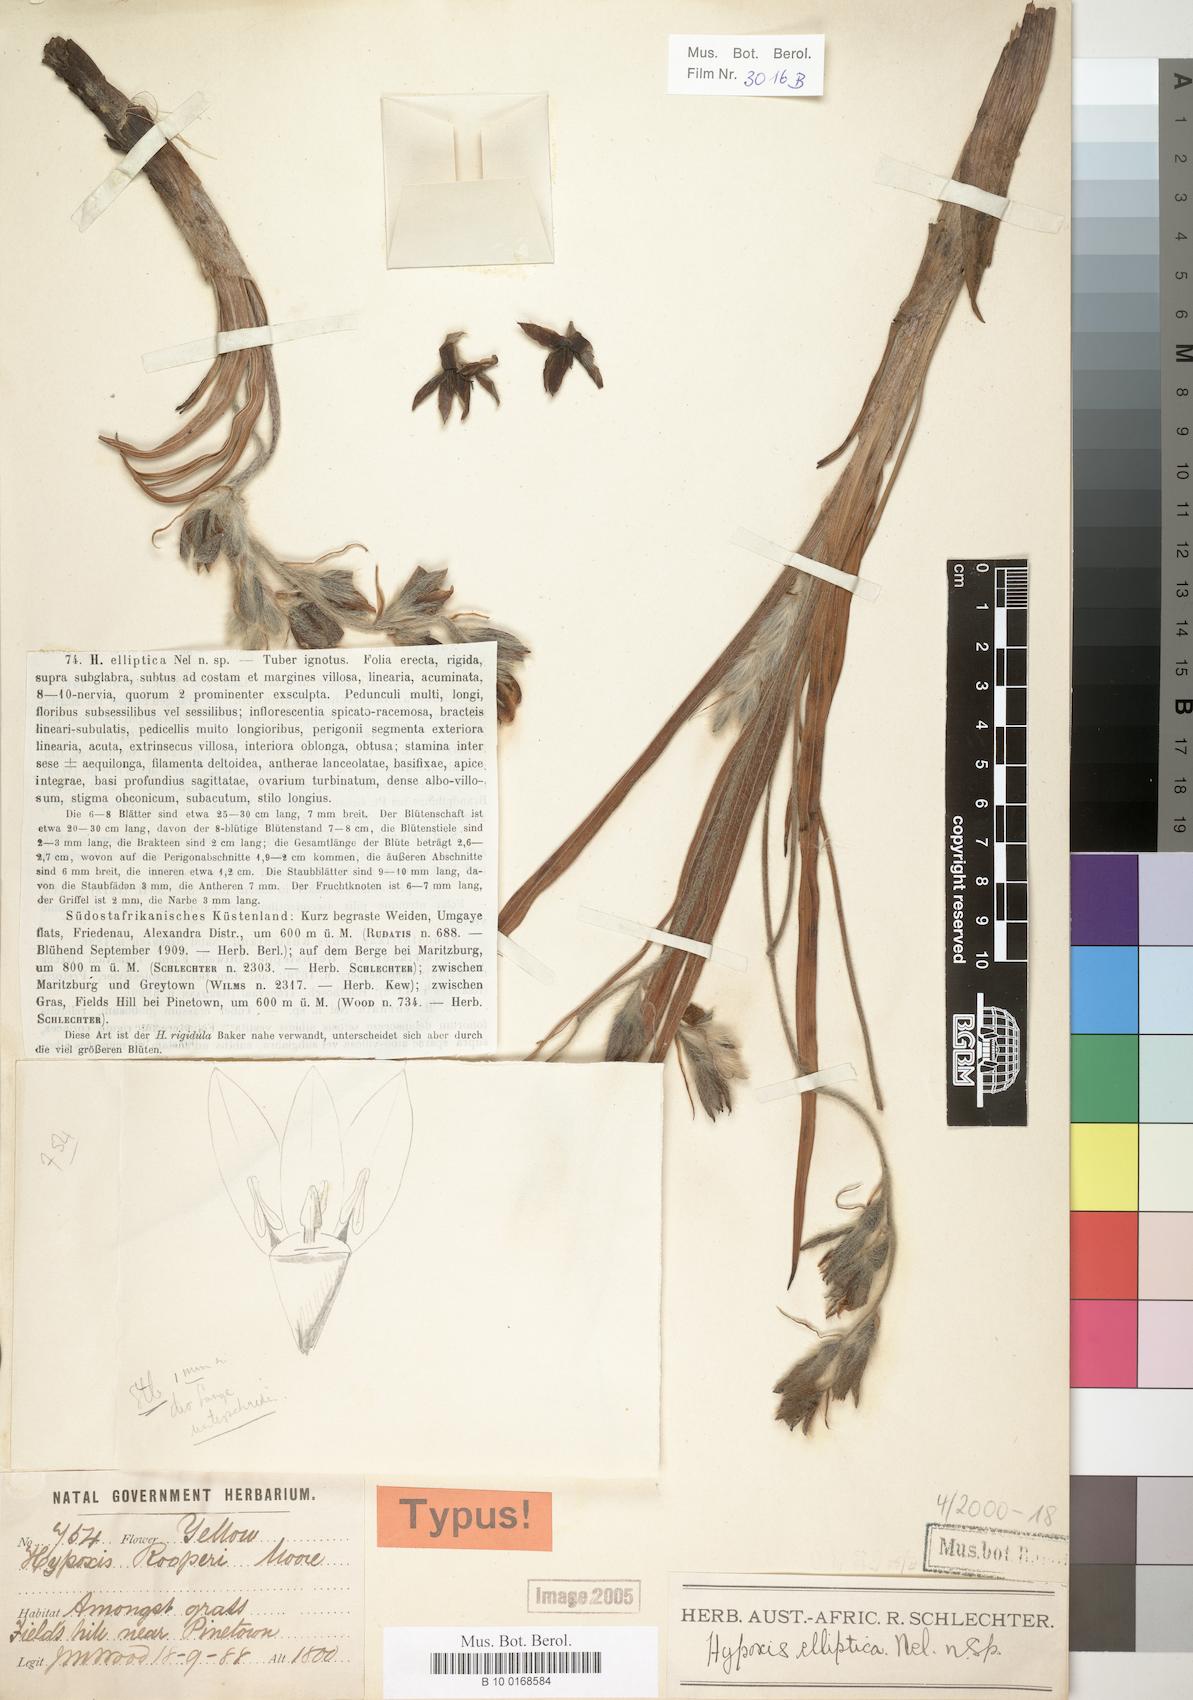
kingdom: Plantae
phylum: Tracheophyta
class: Liliopsida
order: Asparagales
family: Hypoxidaceae
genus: Hypoxis
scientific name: Hypoxis rigidula
